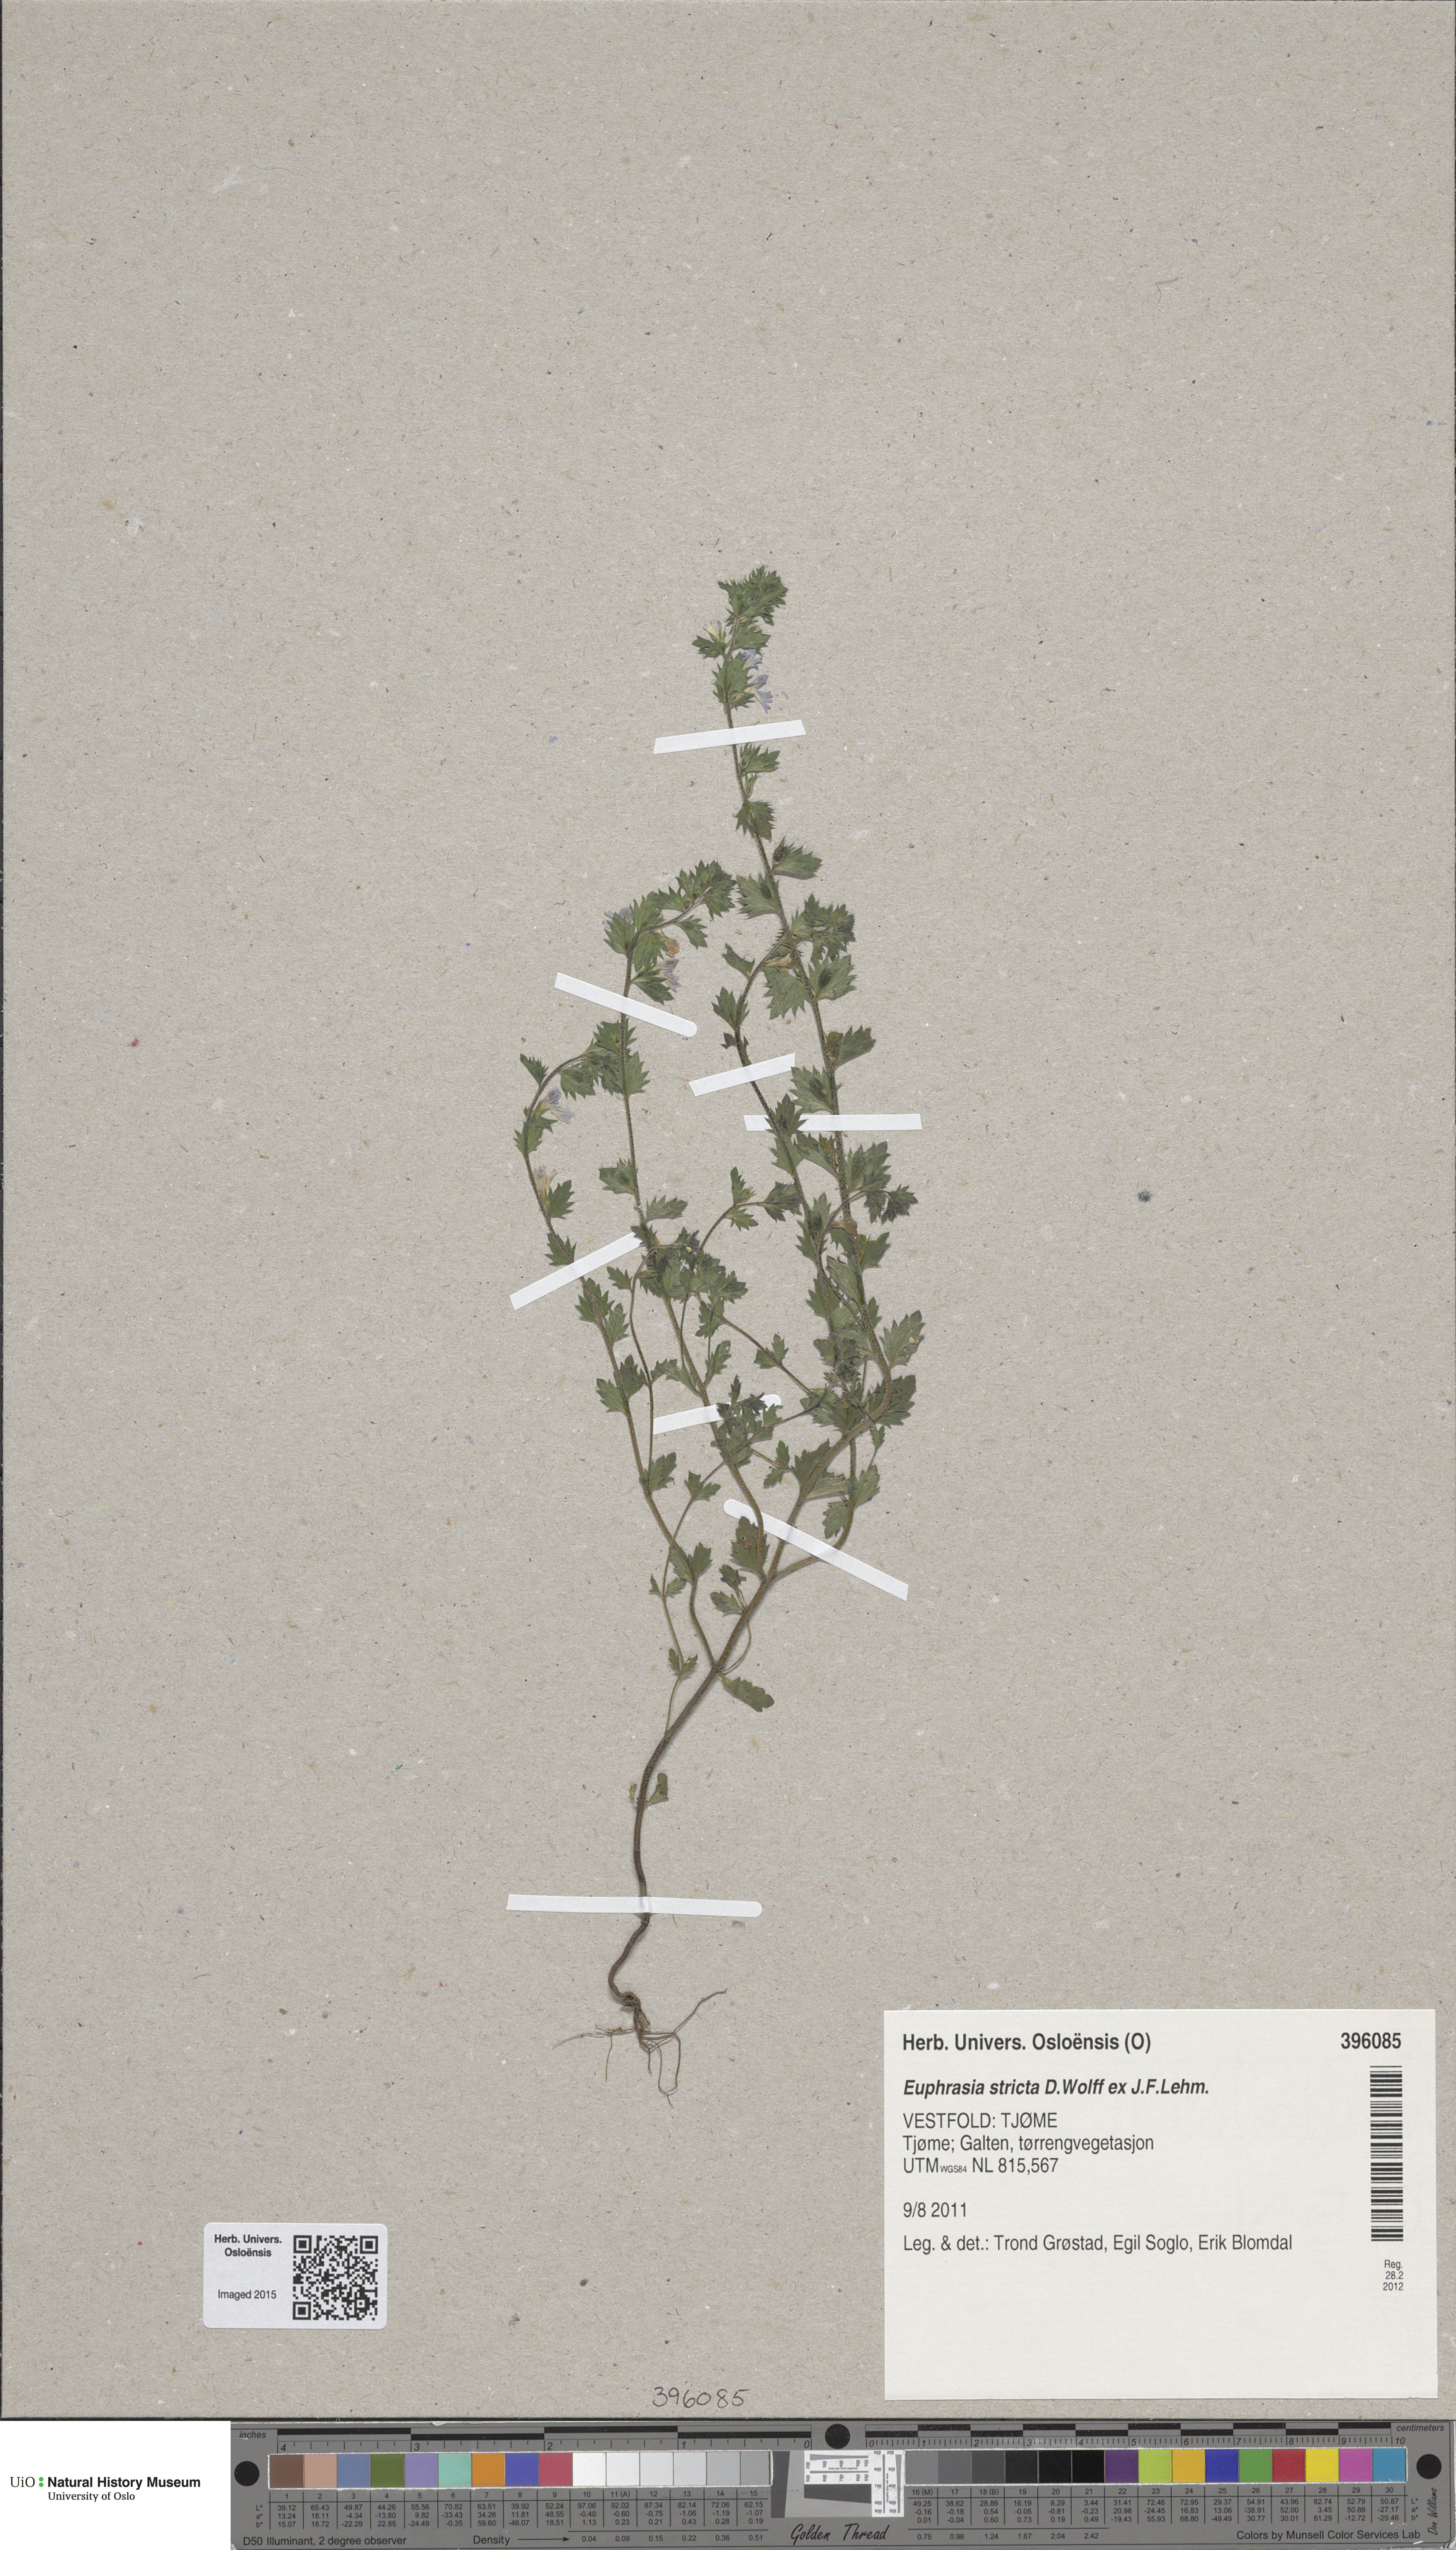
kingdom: Plantae
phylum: Tracheophyta
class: Magnoliopsida
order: Lamiales
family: Orobanchaceae
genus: Euphrasia
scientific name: Euphrasia stricta
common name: Drug eyebright
